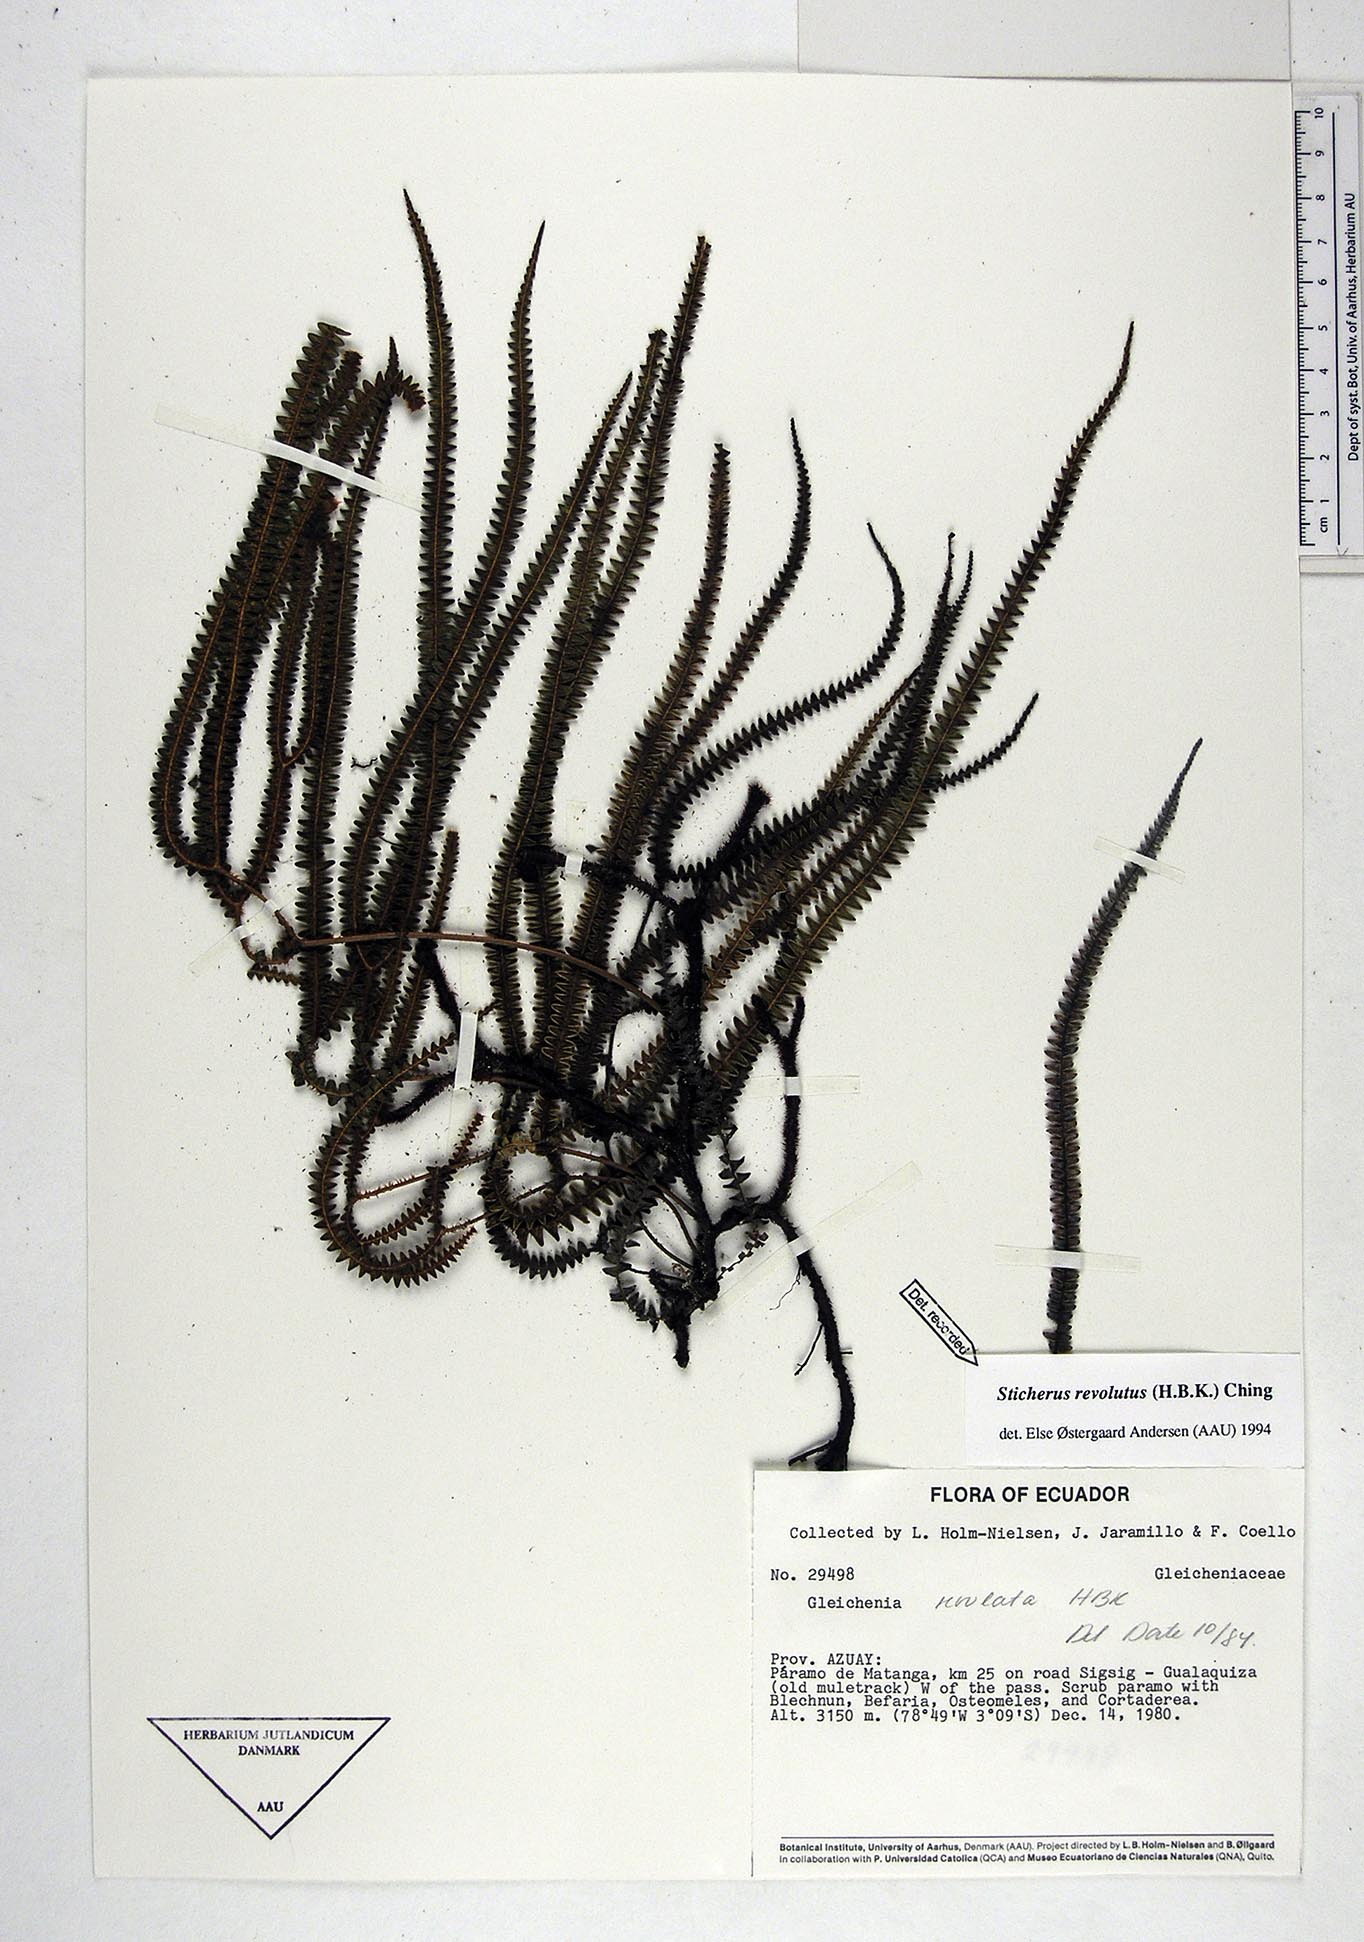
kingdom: Plantae
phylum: Tracheophyta
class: Polypodiopsida
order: Gleicheniales
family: Gleicheniaceae
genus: Sticherus
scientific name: Sticherus revolutus
